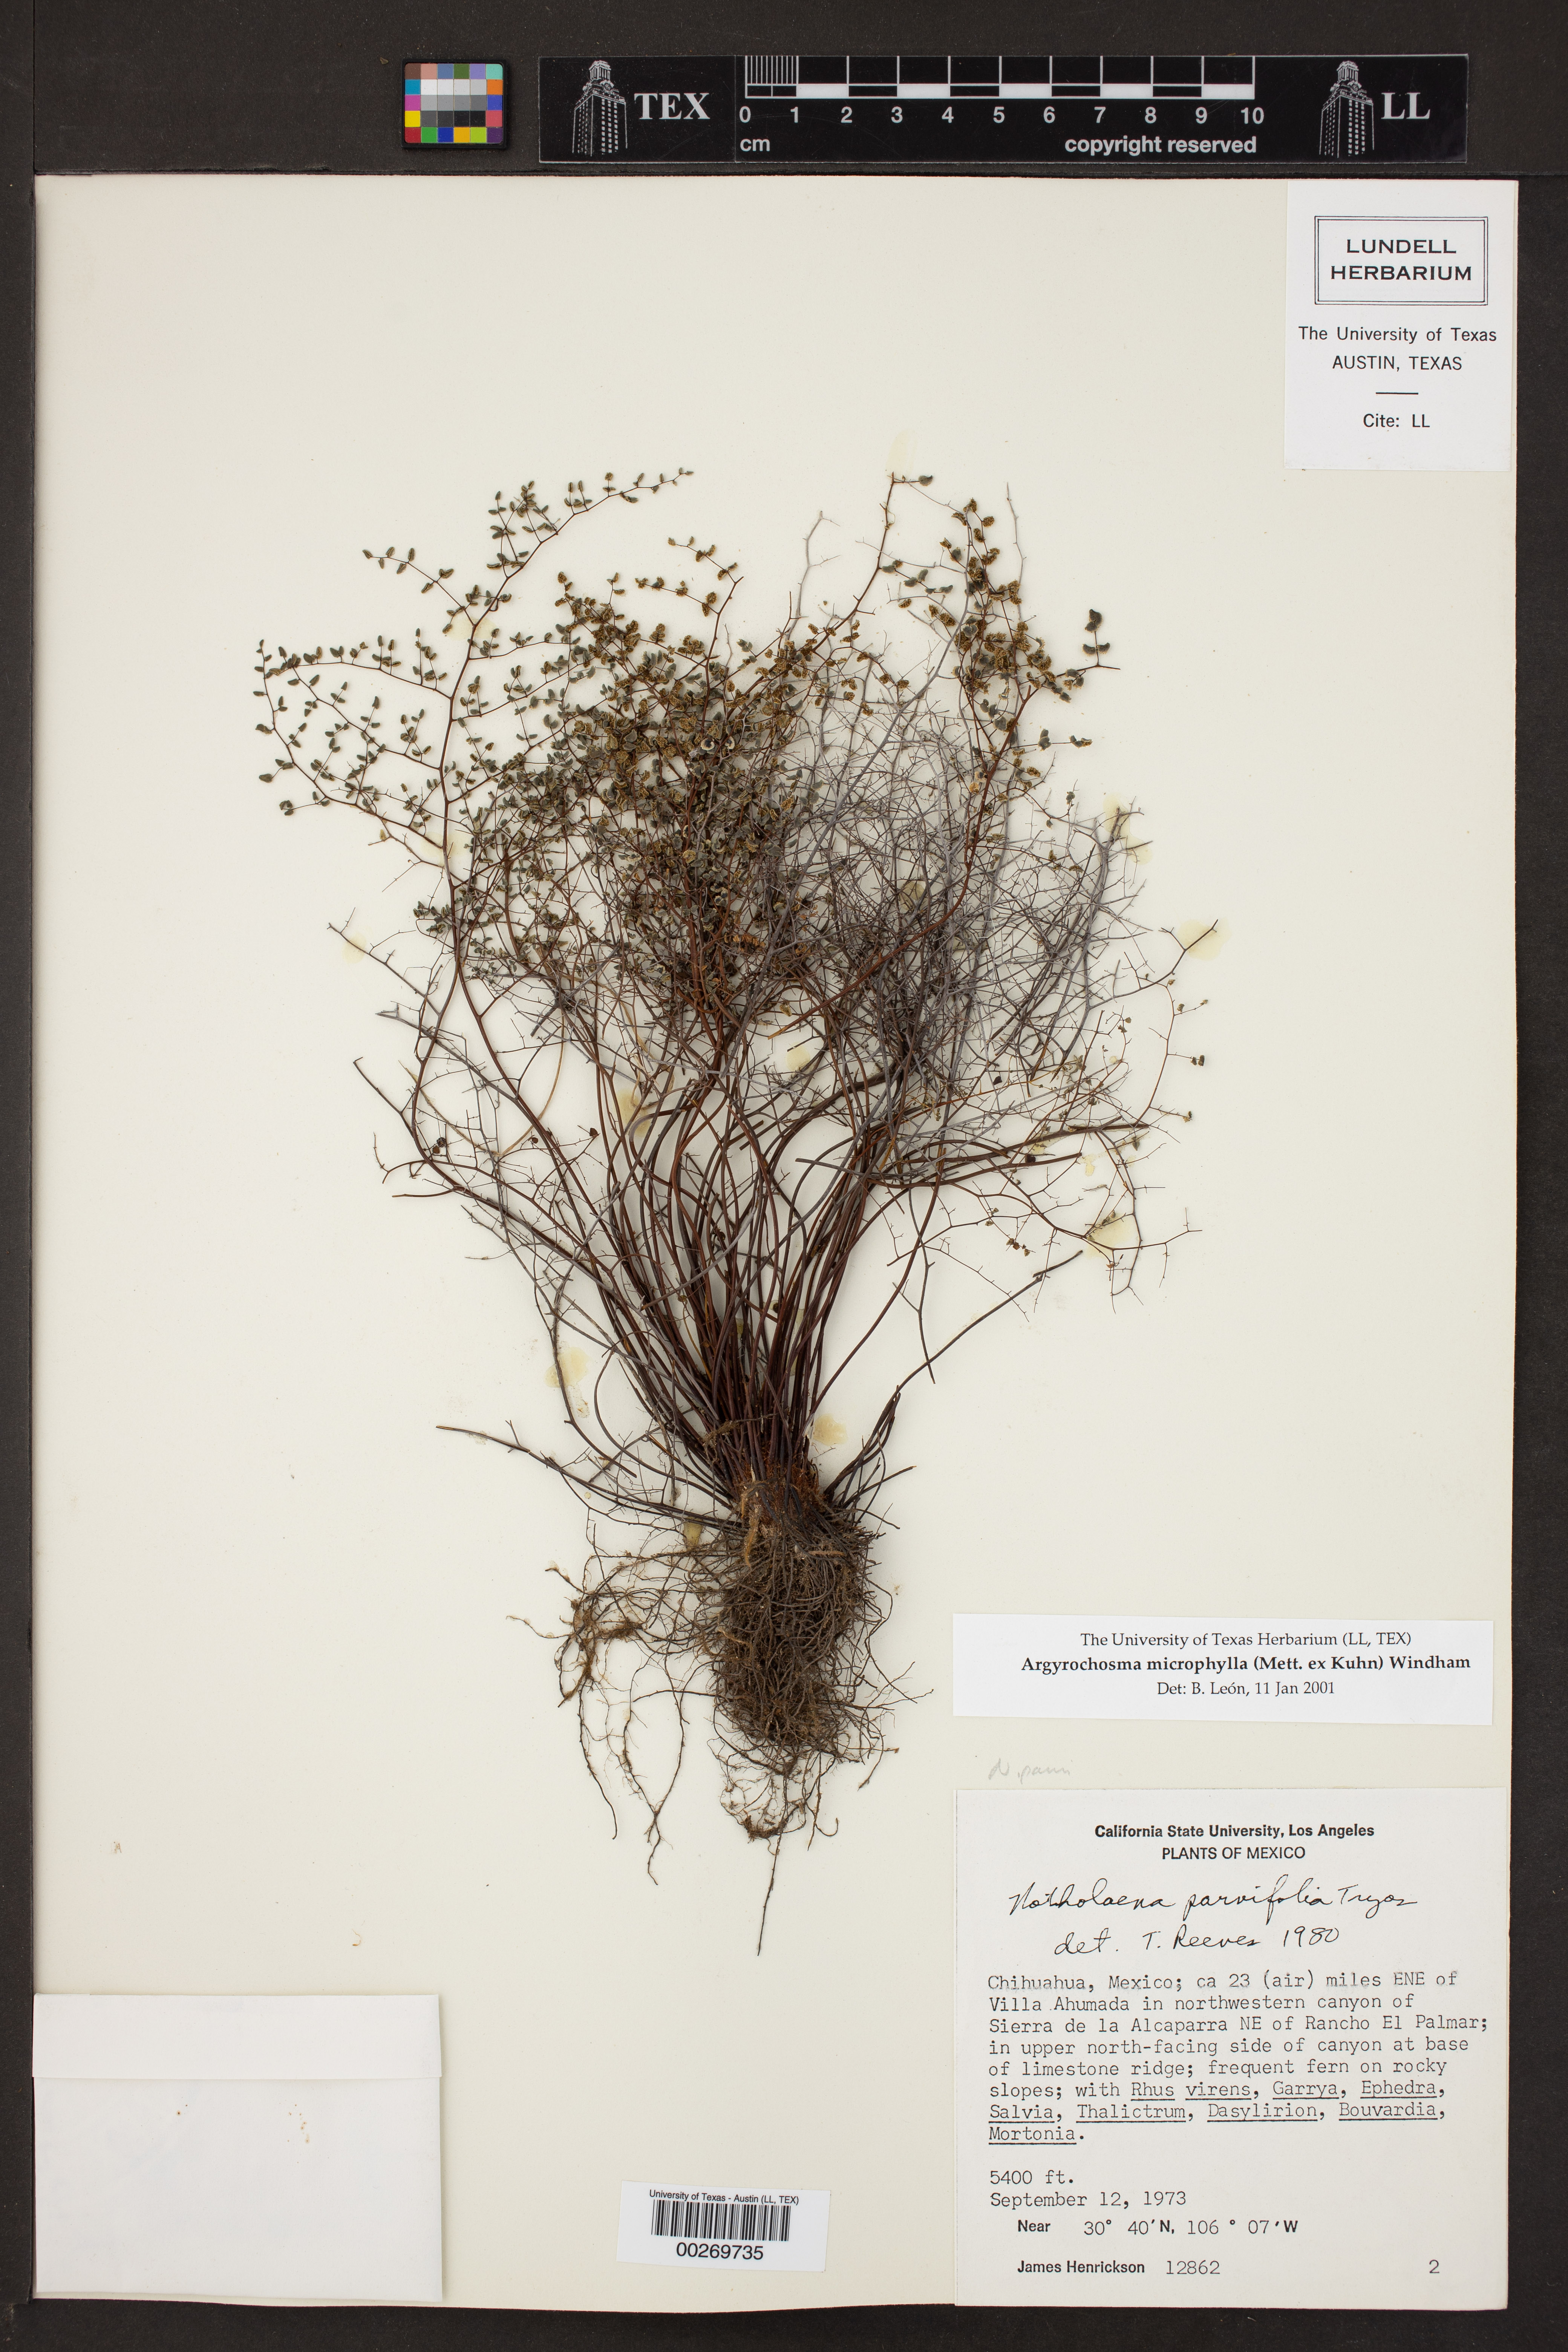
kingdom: Plantae
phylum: Tracheophyta
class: Polypodiopsida
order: Polypodiales
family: Pteridaceae
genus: Argyrochosma
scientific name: Argyrochosma microphylla
